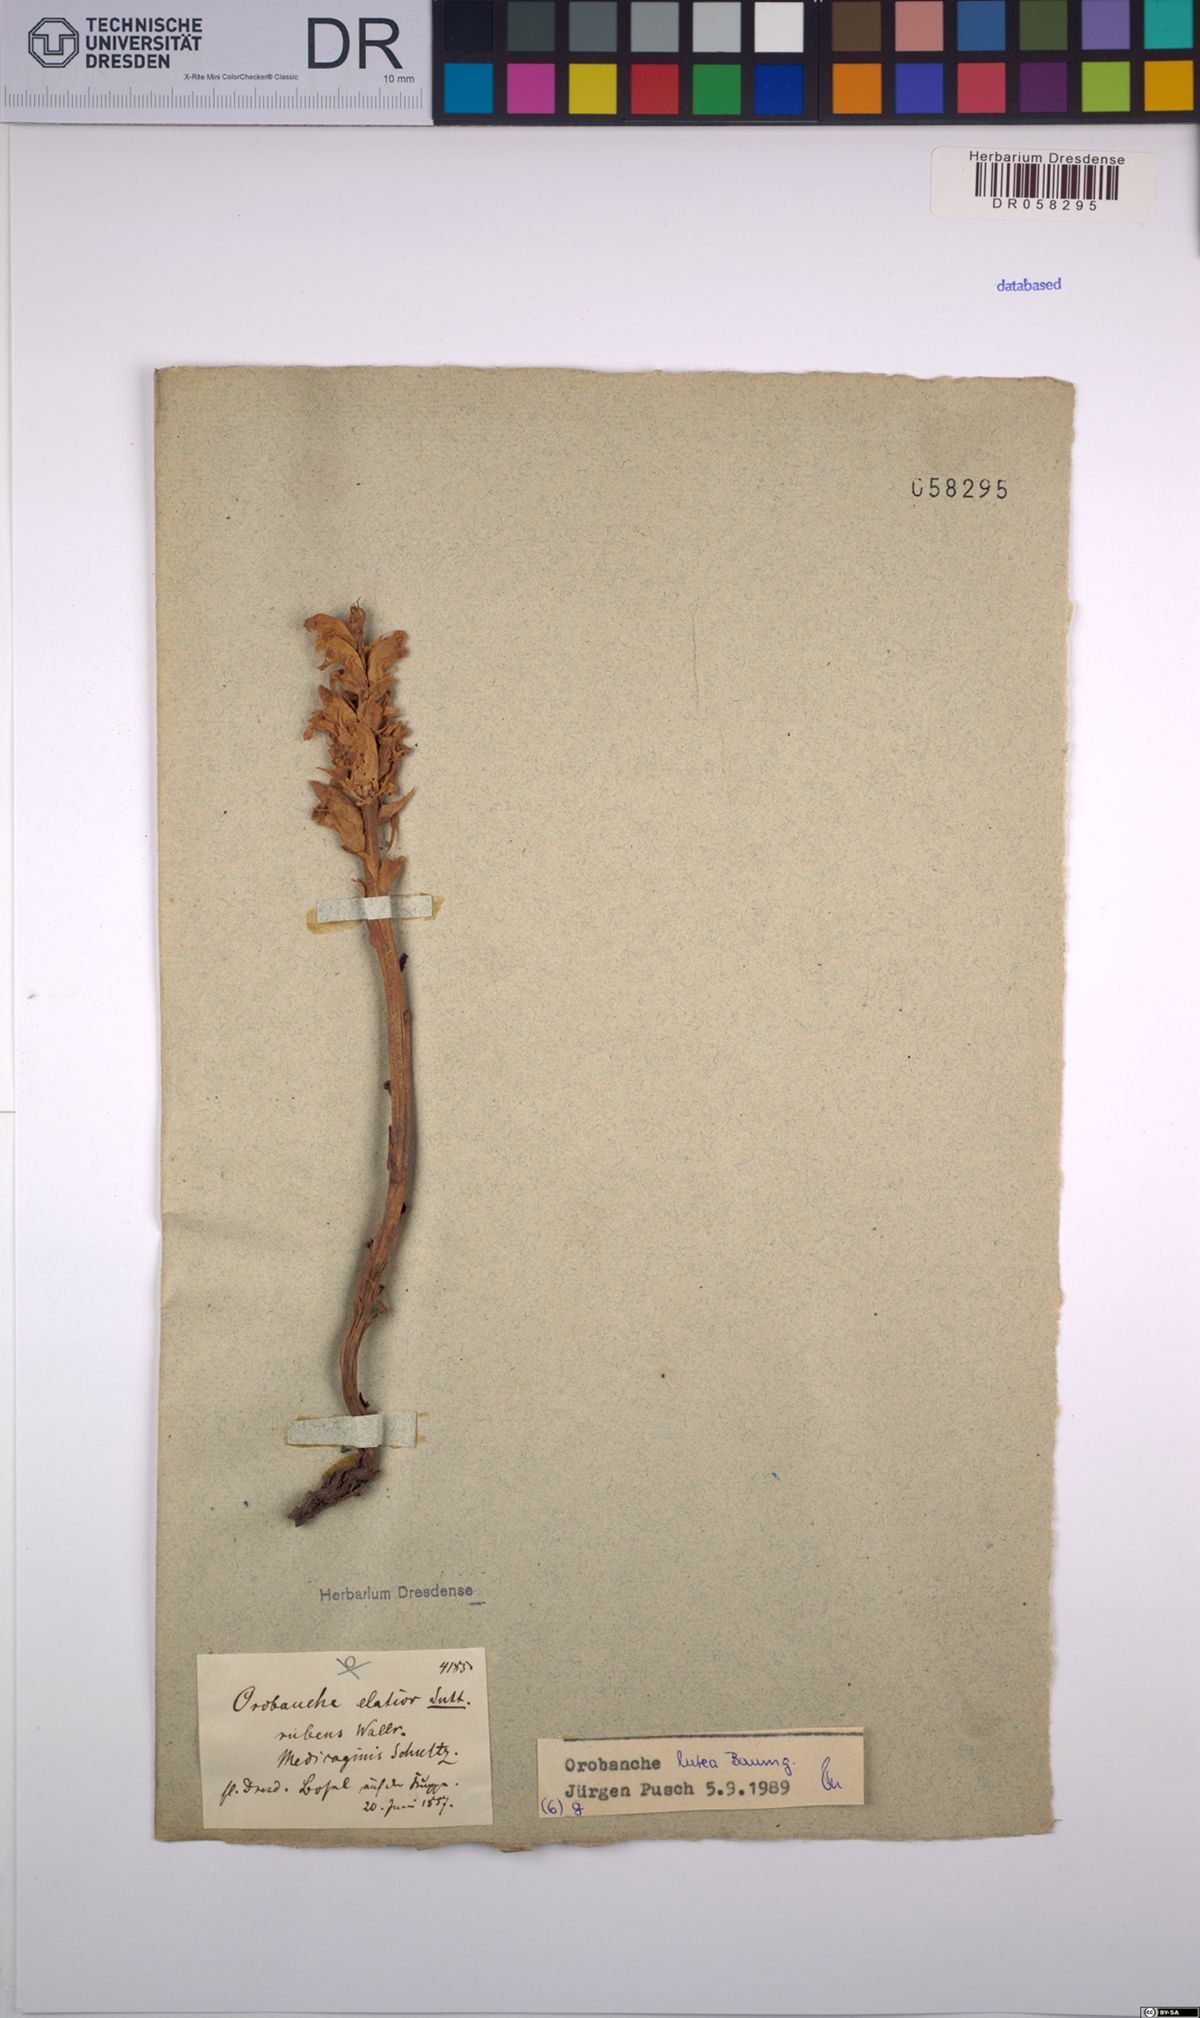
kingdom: Plantae
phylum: Tracheophyta
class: Magnoliopsida
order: Lamiales
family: Orobanchaceae
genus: Orobanche
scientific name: Orobanche lutea
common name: Yellow broomrape
